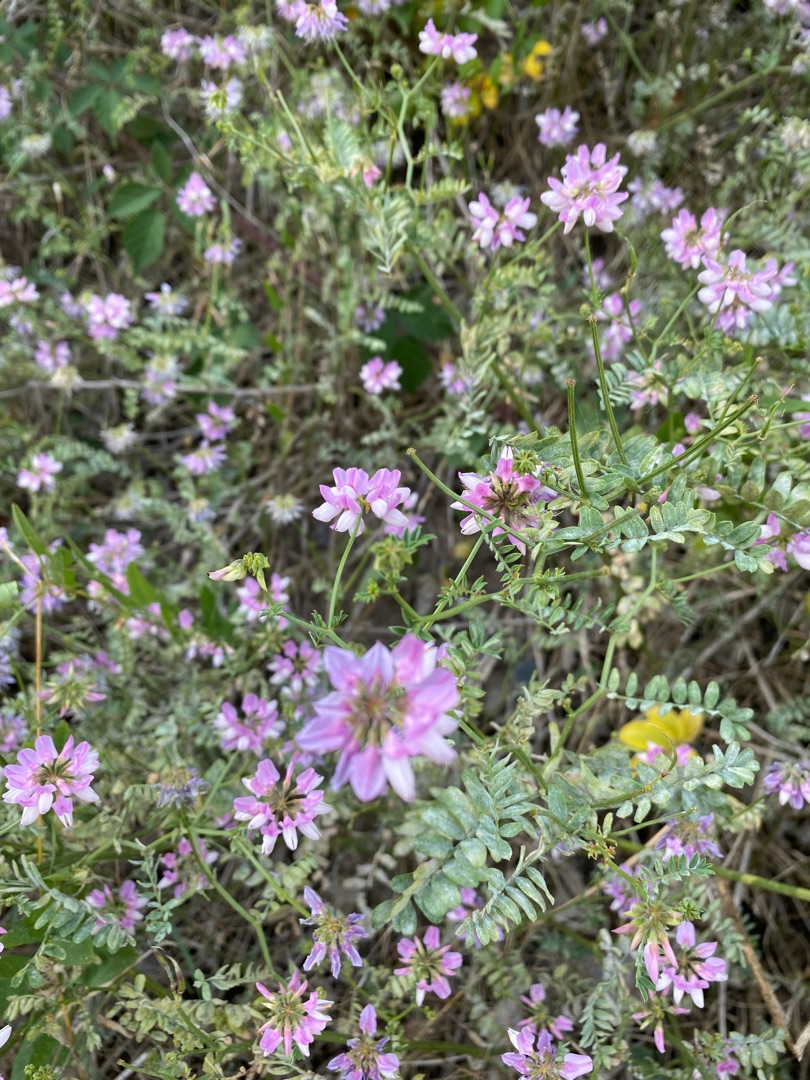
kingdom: Plantae
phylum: Tracheophyta
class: Magnoliopsida
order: Fabales
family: Fabaceae
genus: Coronilla
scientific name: Coronilla varia
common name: Giftig kronvikke
